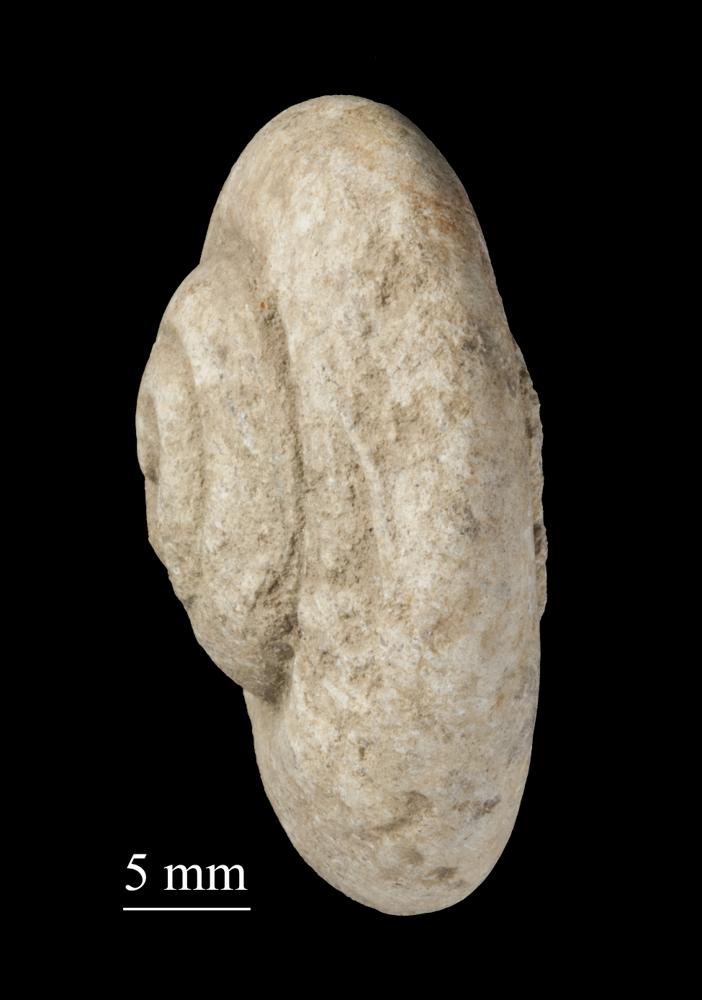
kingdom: Animalia
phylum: Mollusca
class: Gastropoda
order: Neogastropoda
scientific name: Neogastropoda
